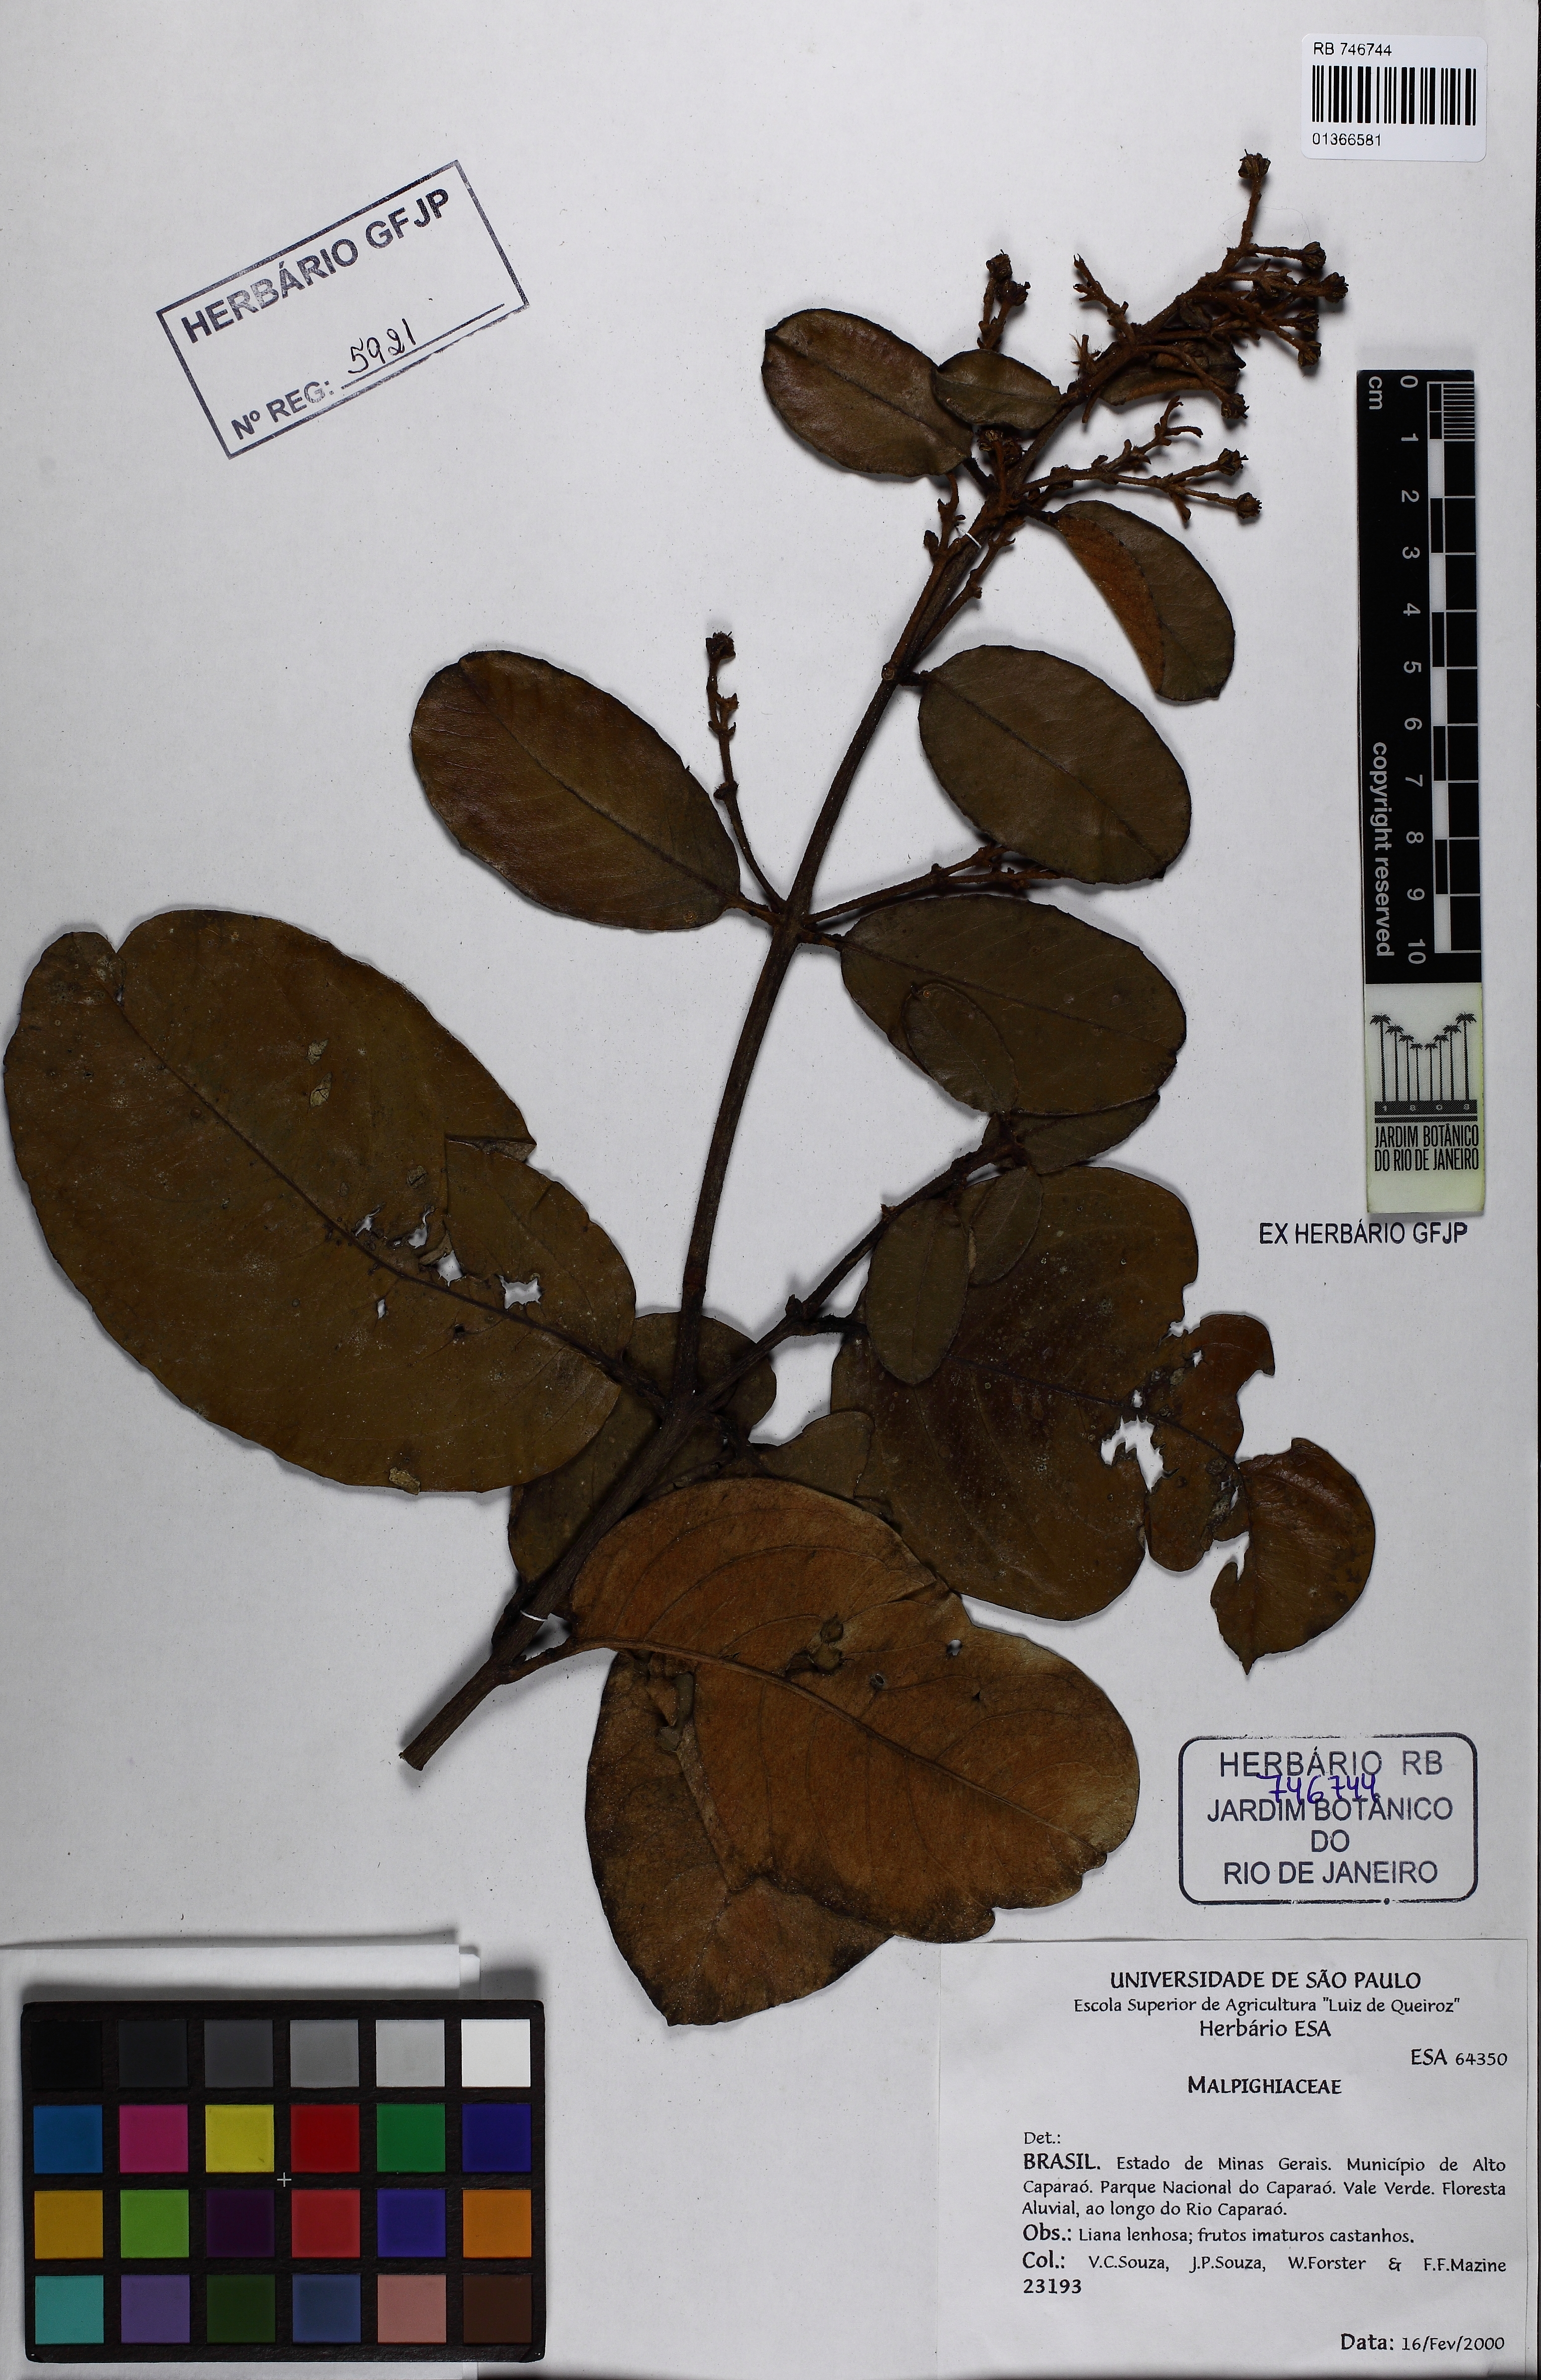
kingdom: Plantae
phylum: Tracheophyta
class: Magnoliopsida
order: Malpighiales
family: Malpighiaceae
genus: Heteropterys
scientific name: Heteropterys
